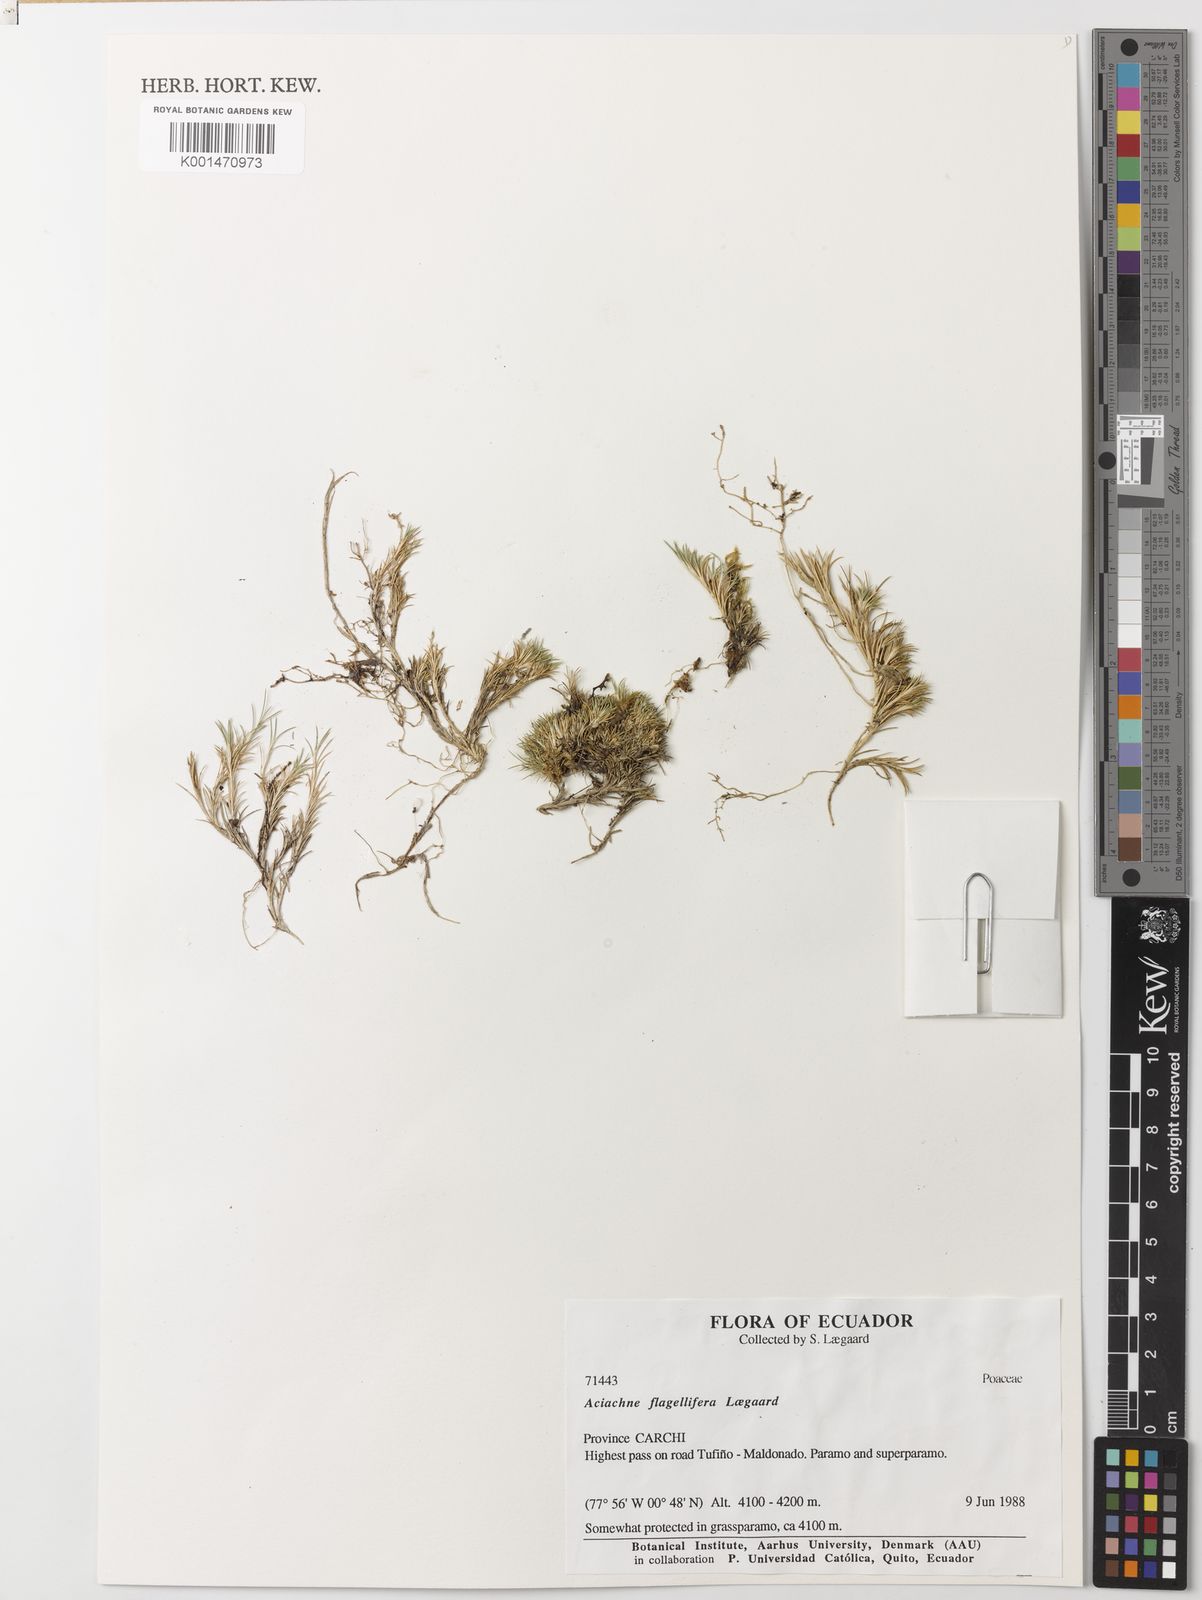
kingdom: Plantae
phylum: Tracheophyta
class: Liliopsida
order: Poales
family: Poaceae
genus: Aciachne
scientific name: Aciachne flagellifera
